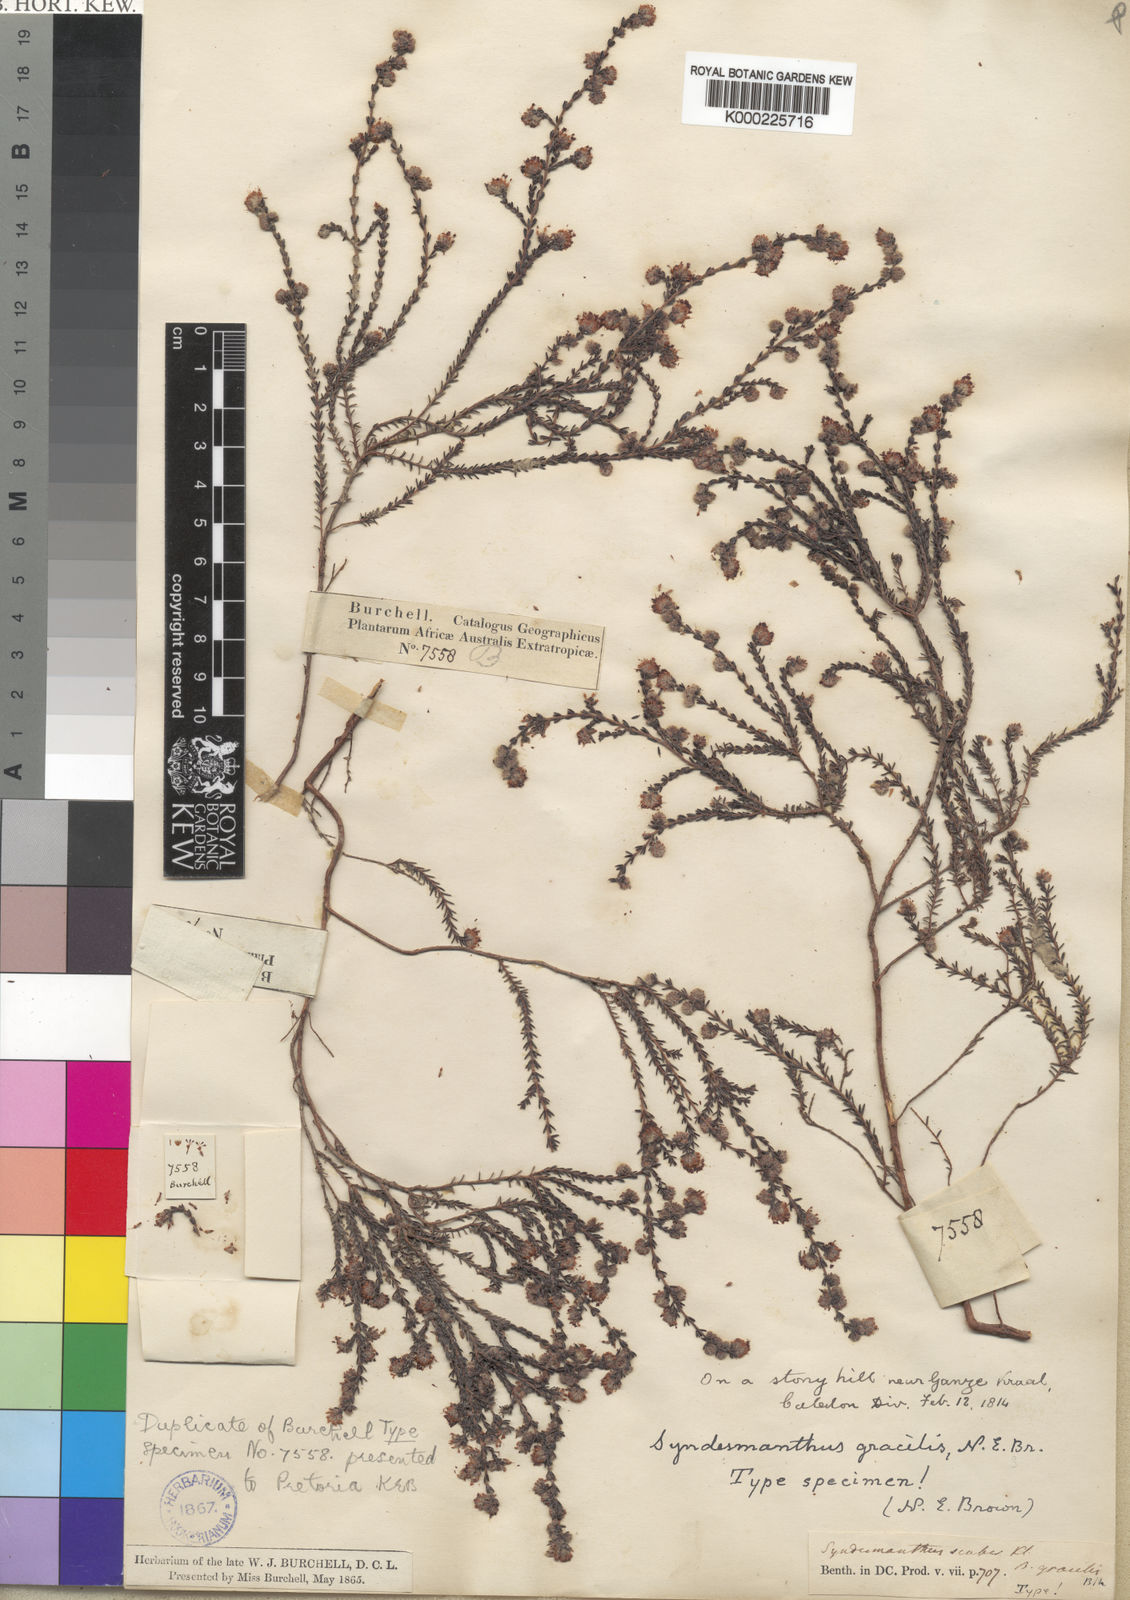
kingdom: Plantae
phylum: Tracheophyta
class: Magnoliopsida
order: Ericales
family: Ericaceae
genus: Erica
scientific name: Erica globiceps
